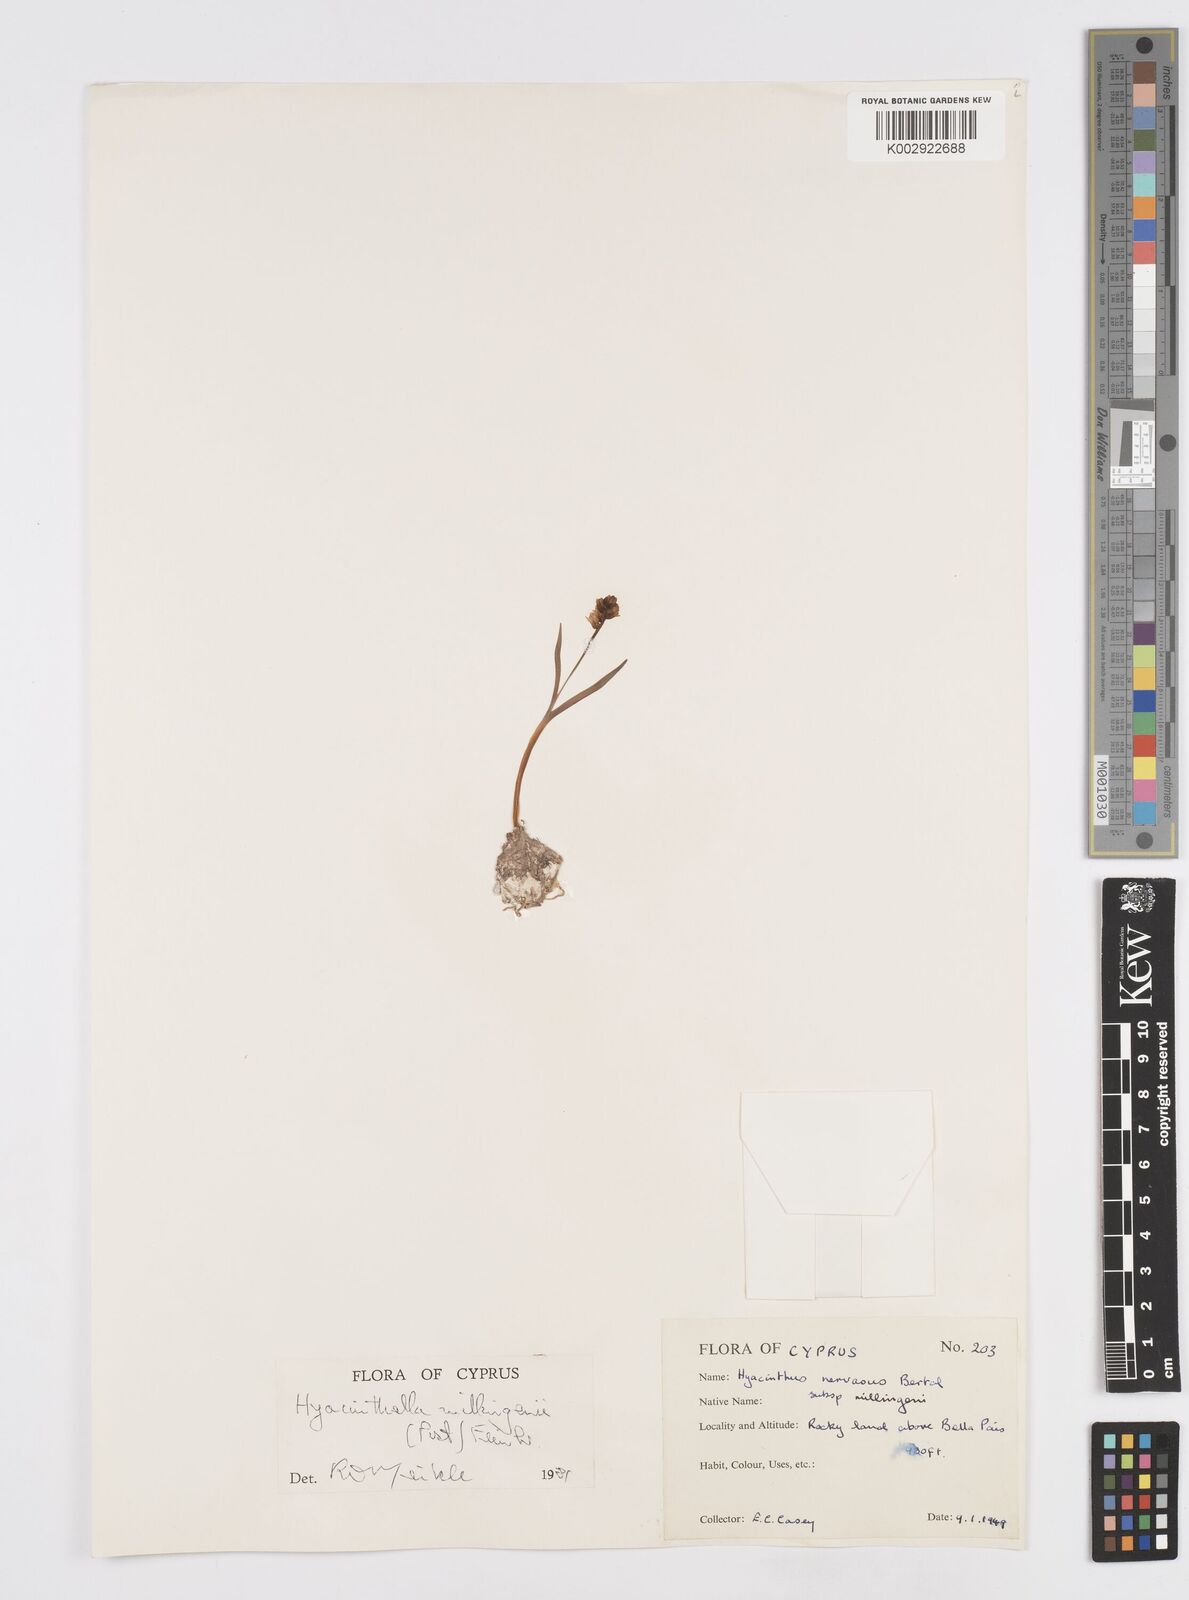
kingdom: Plantae
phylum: Tracheophyta
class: Liliopsida
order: Asparagales
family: Asparagaceae
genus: Hyacinthella
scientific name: Hyacinthella millingenii
